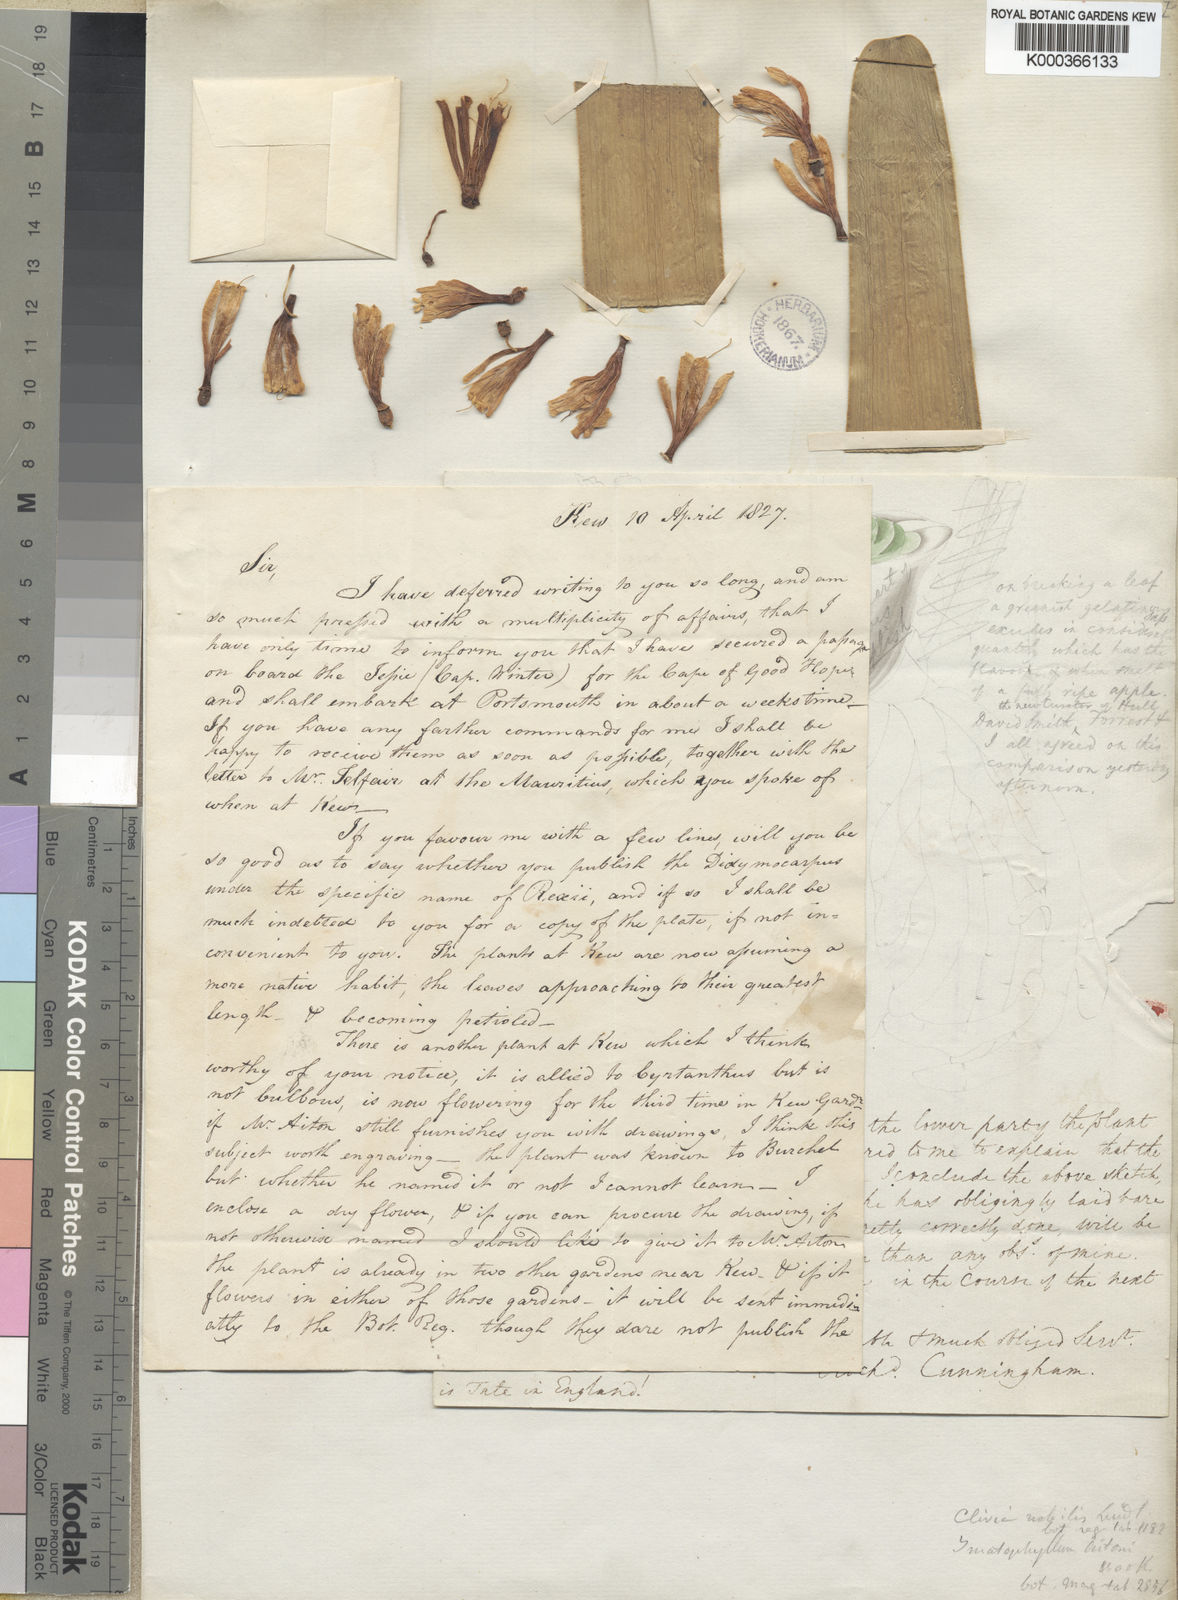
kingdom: Plantae
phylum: Tracheophyta
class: Liliopsida
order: Asparagales
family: Amaryllidaceae
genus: Clivia
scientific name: Clivia nobilis
